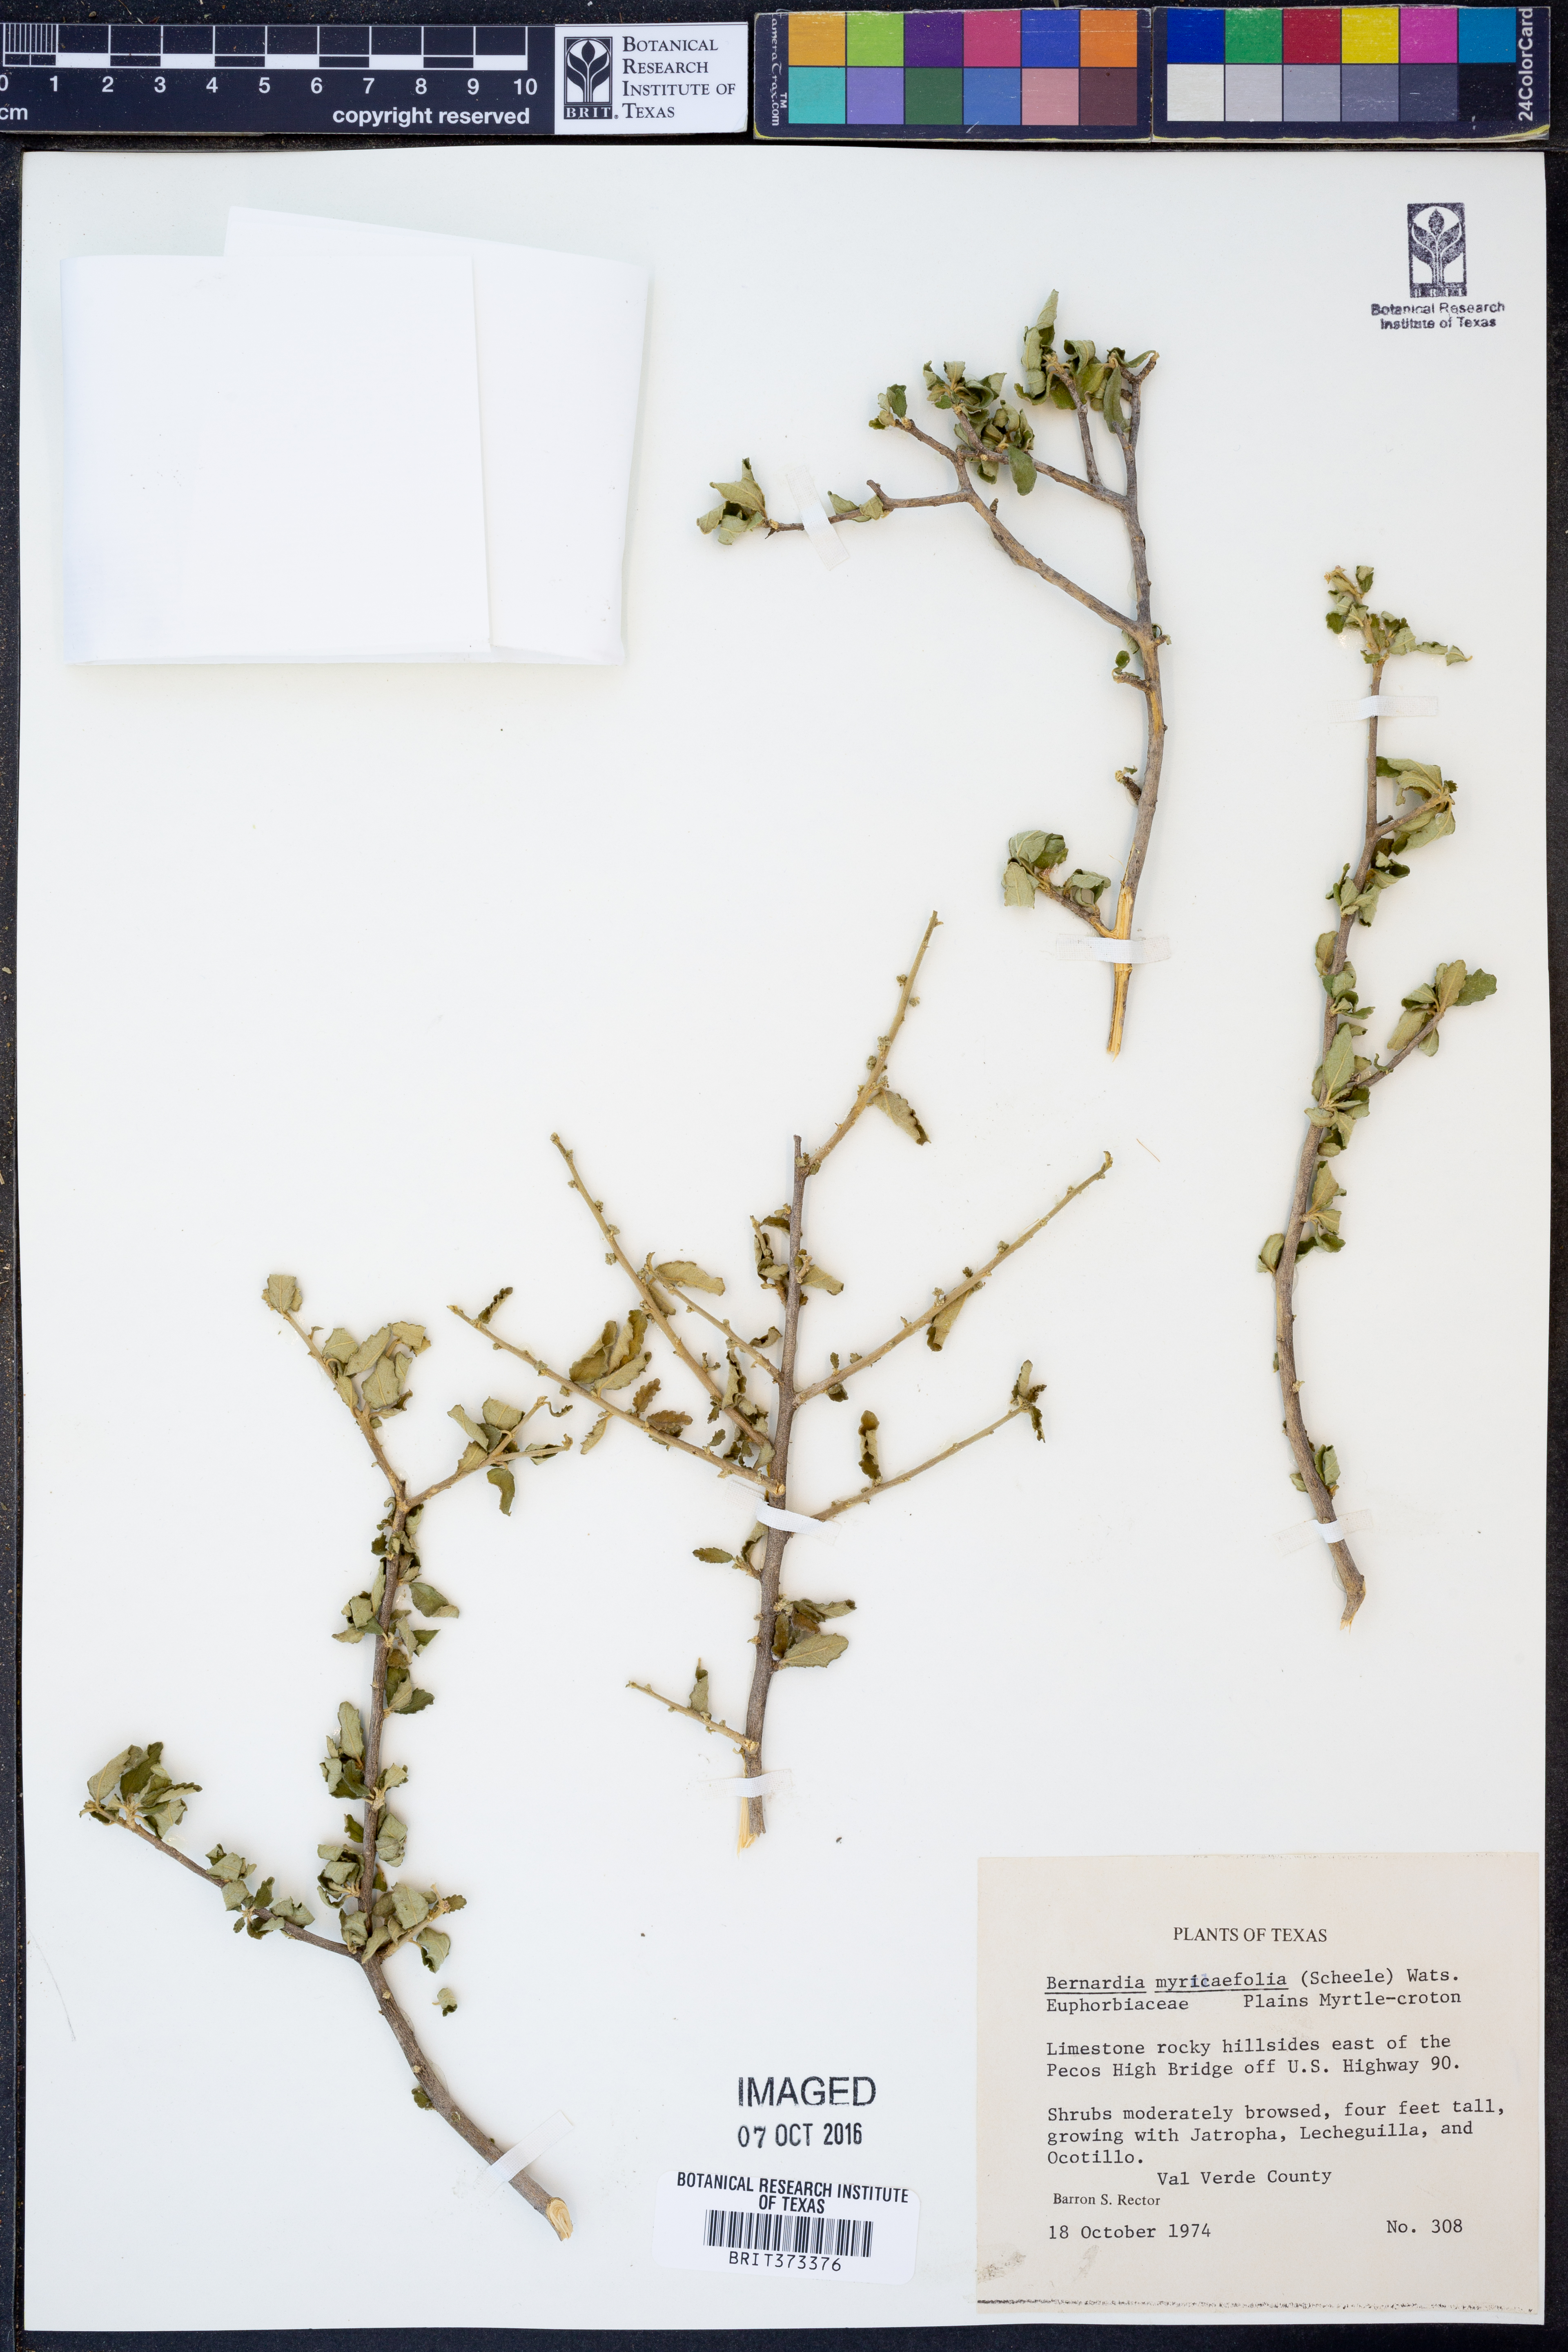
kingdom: Plantae
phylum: Tracheophyta
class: Magnoliopsida
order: Malpighiales
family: Euphorbiaceae
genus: Bernardia
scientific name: Bernardia myricifolia
